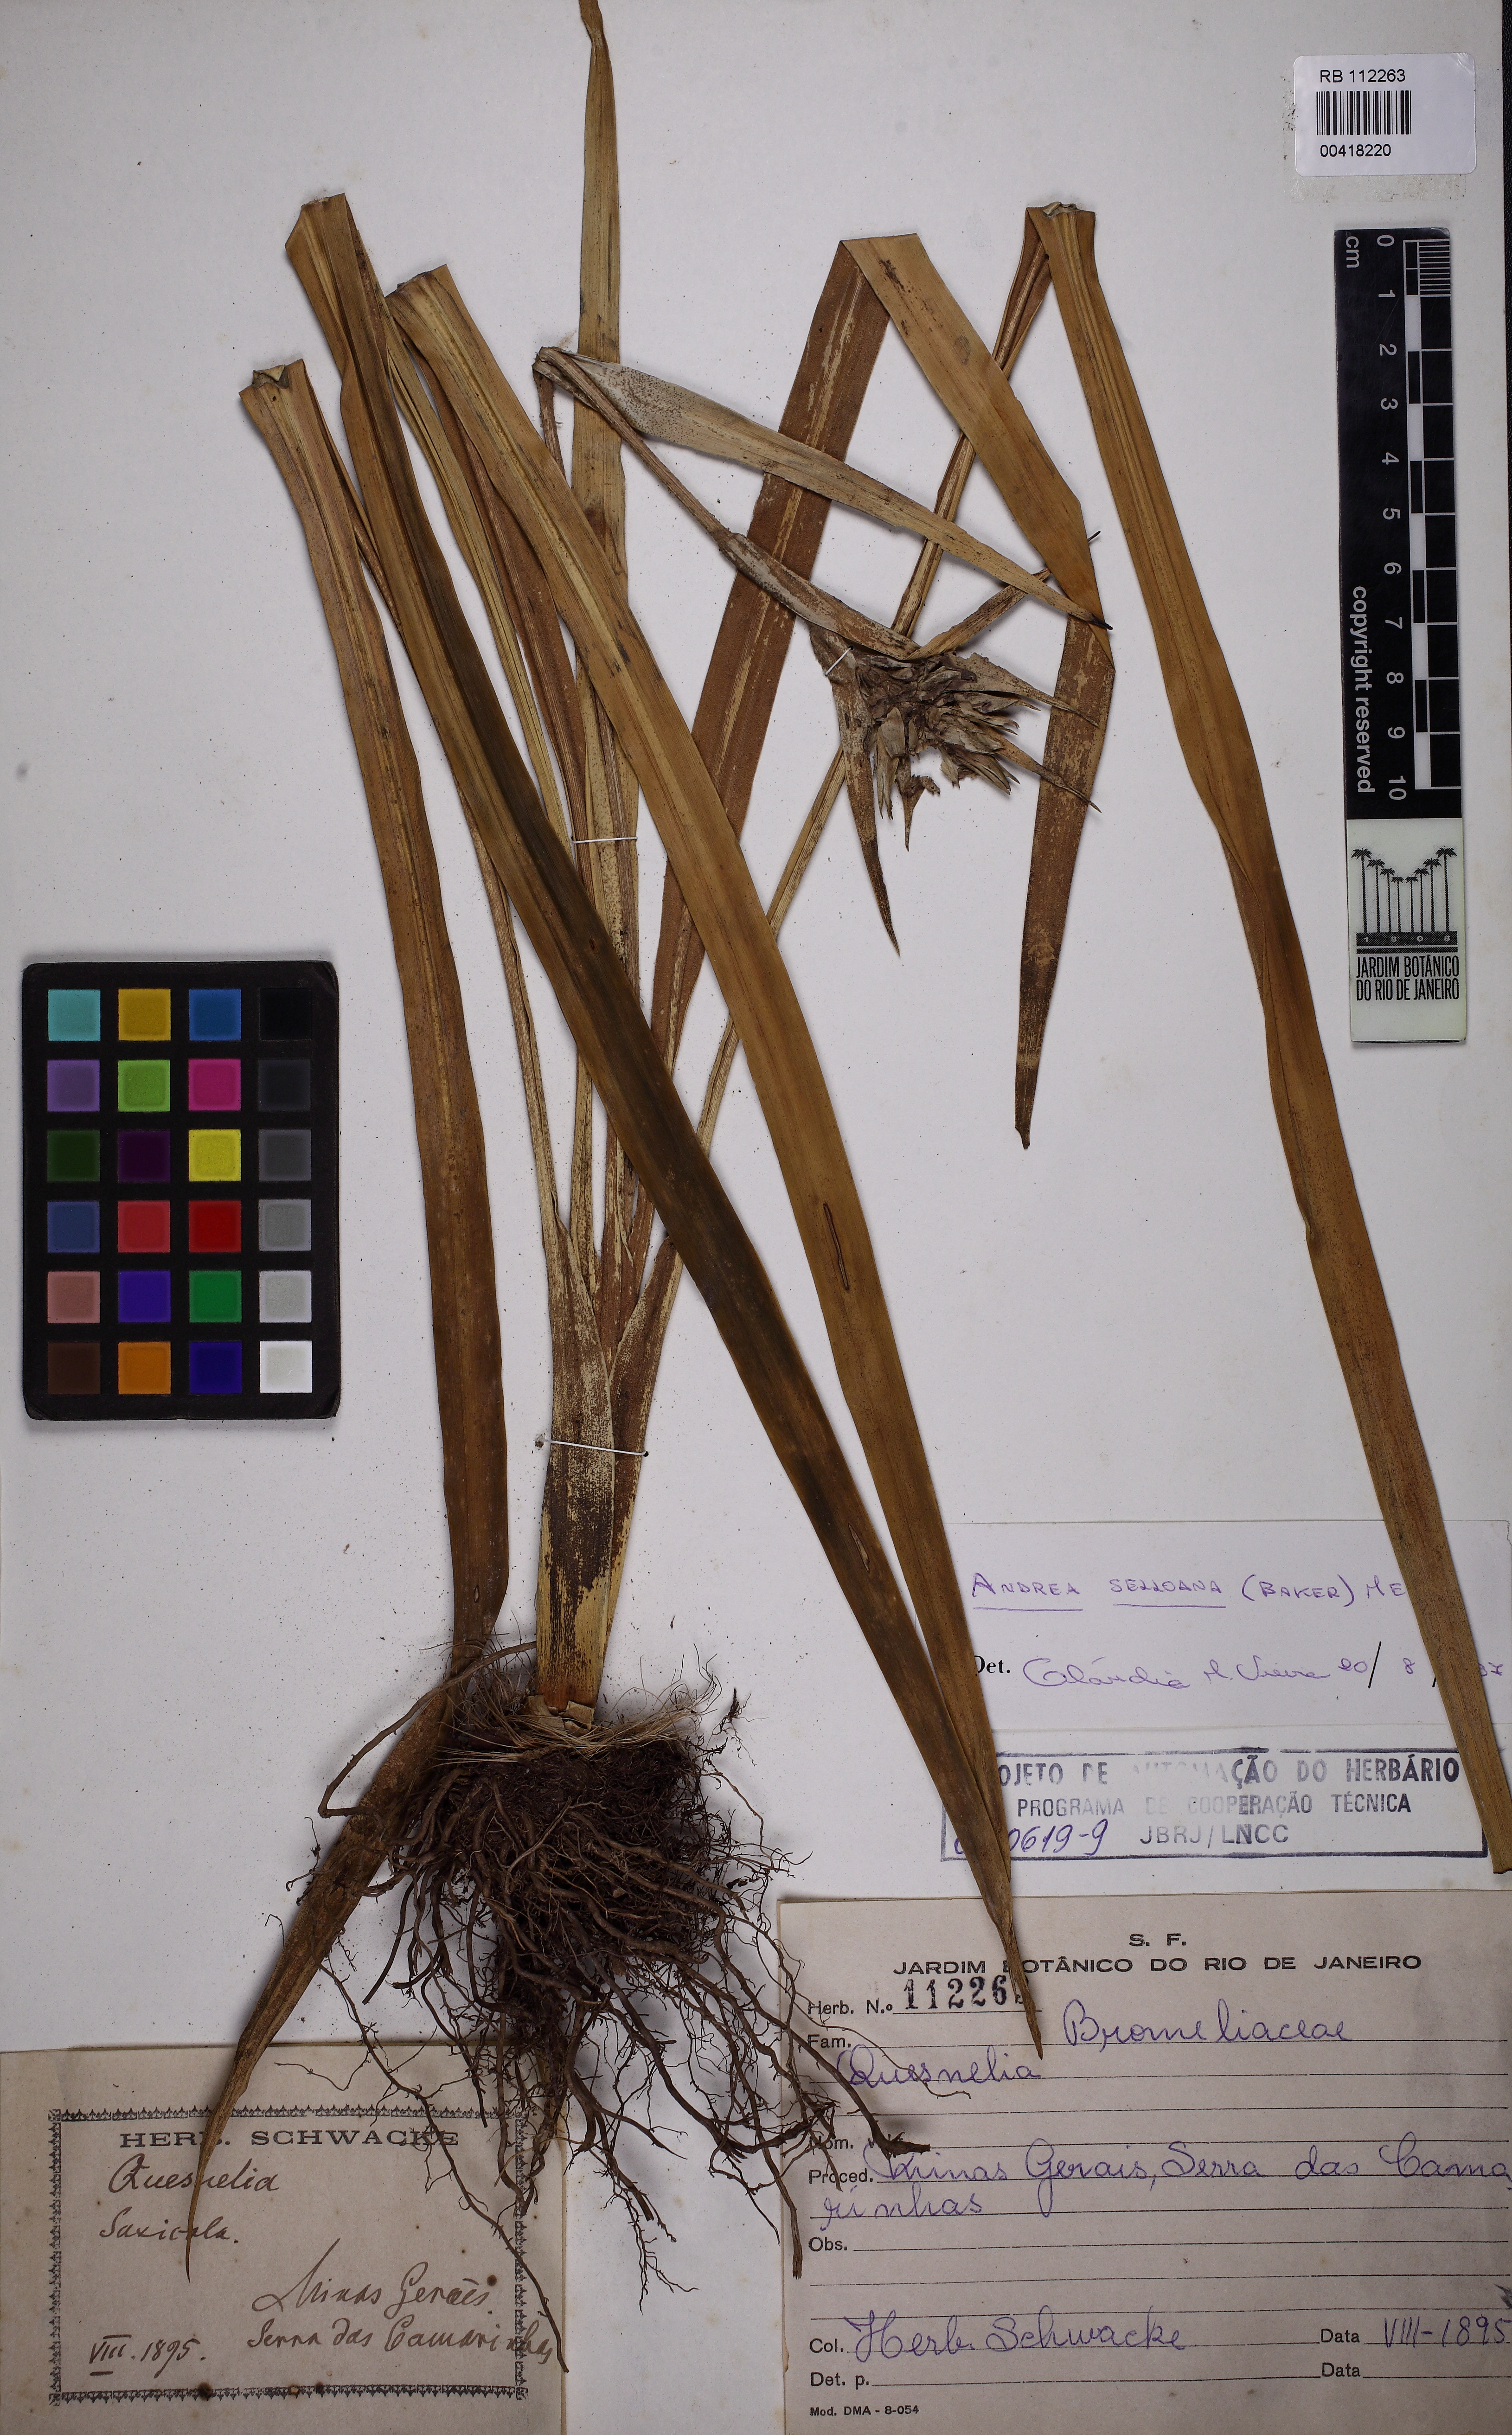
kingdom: Plantae
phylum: Tracheophyta
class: Liliopsida
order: Poales
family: Bromeliaceae
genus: Eduandrea
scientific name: Eduandrea selloana
